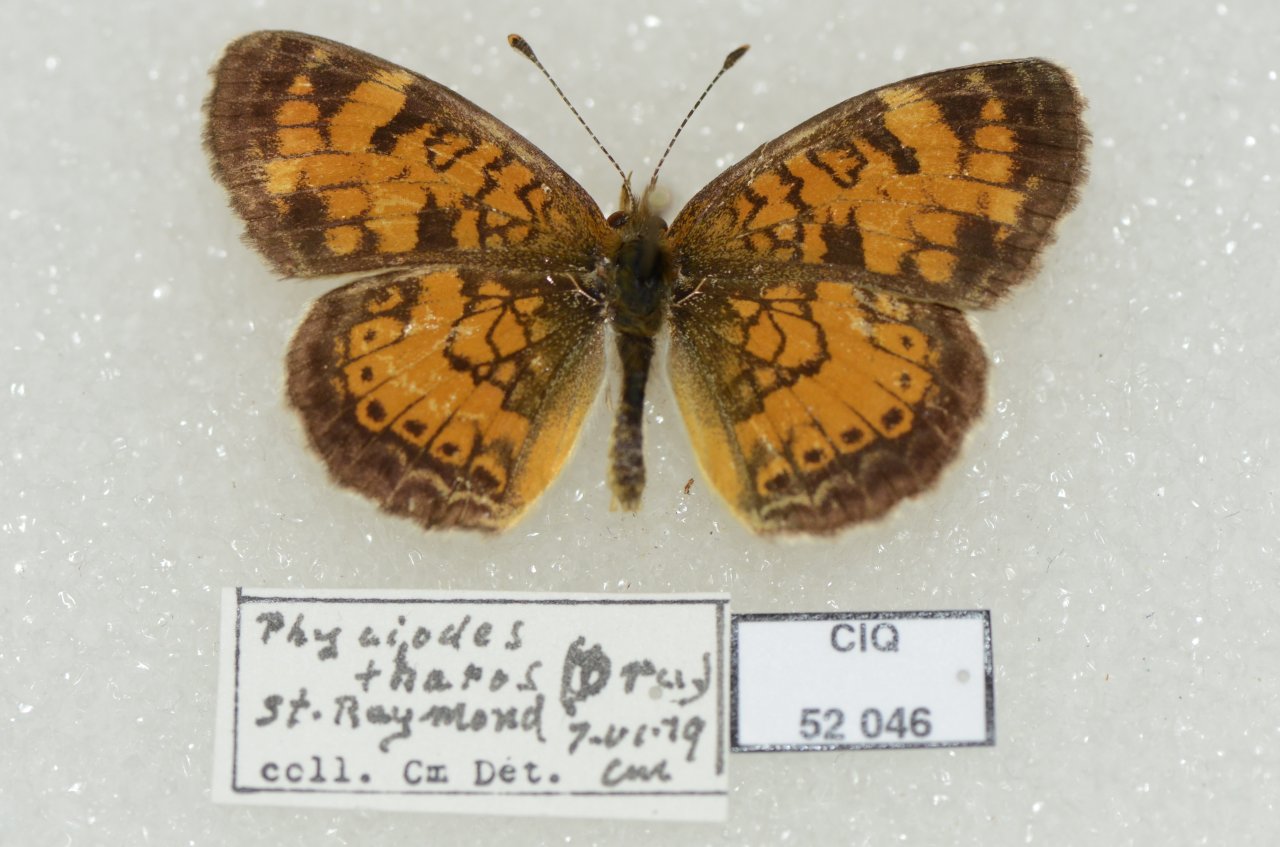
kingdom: Animalia
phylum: Arthropoda
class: Insecta
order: Lepidoptera
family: Nymphalidae
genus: Phyciodes
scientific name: Phyciodes tharos
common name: Northern Crescent
